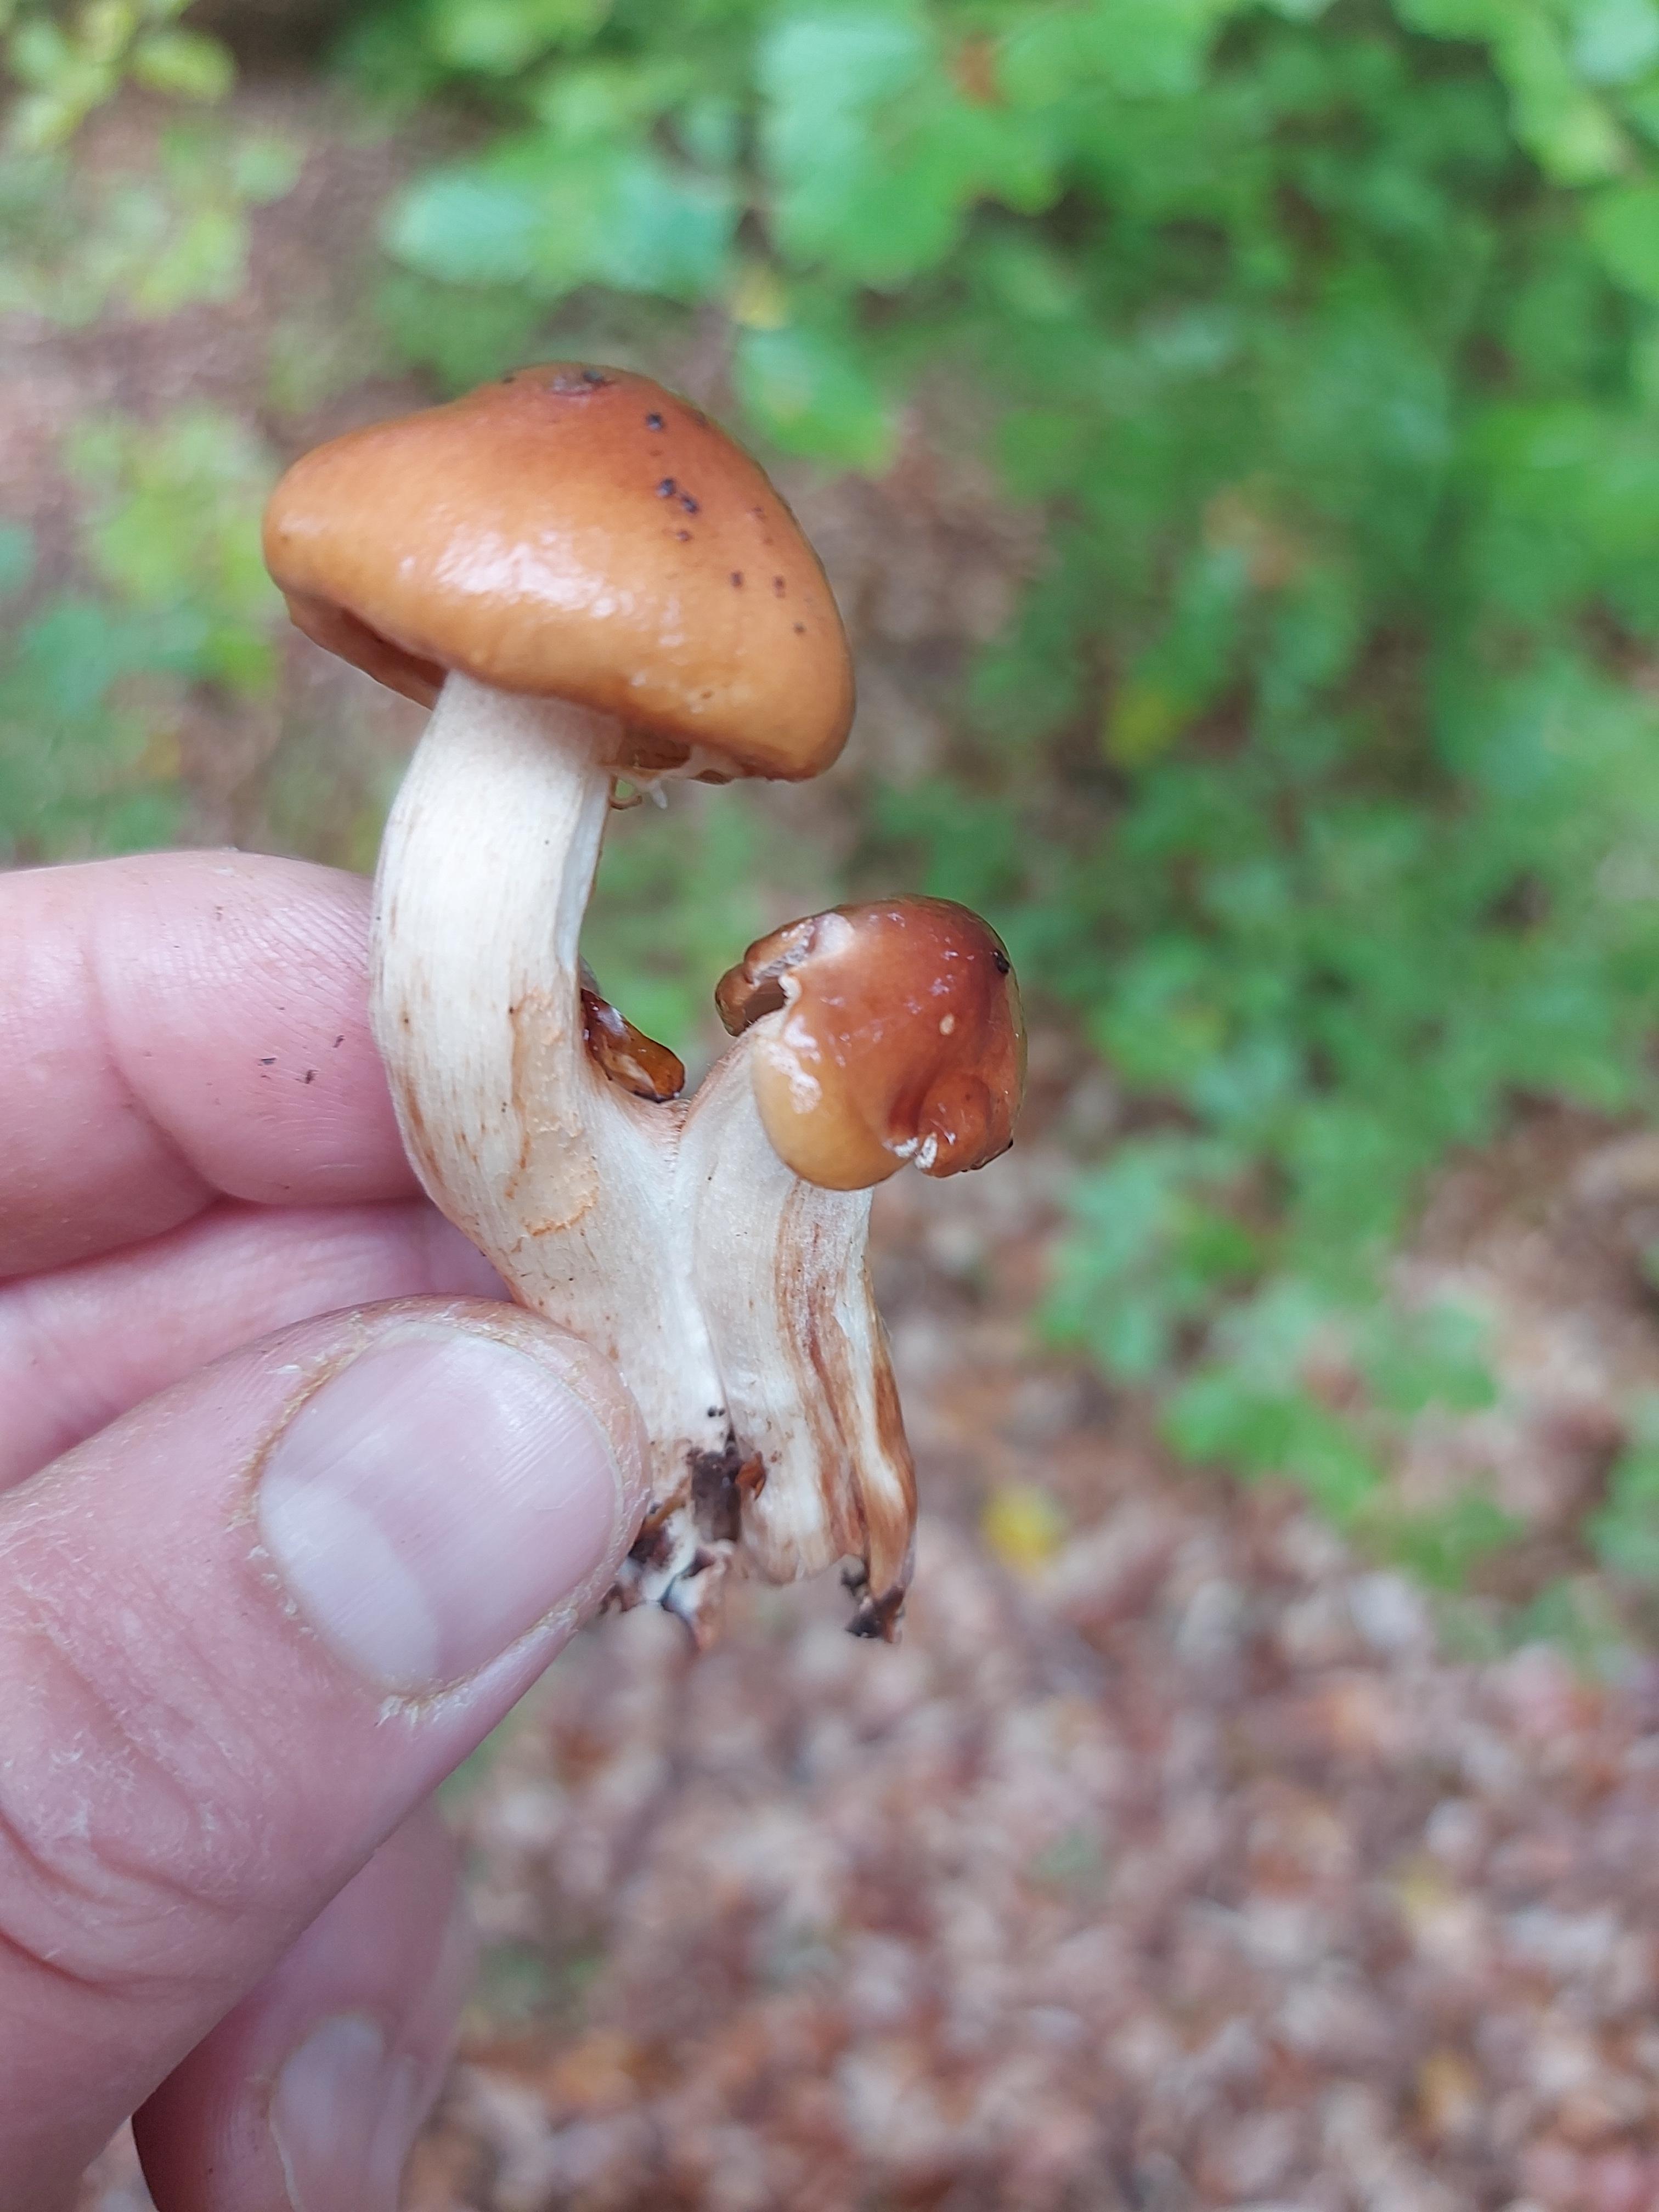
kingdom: Fungi
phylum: Basidiomycota
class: Agaricomycetes
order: Agaricales
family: Tricholomataceae
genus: Tricholoma
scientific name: Tricholoma ustale
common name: sveden ridderhat
